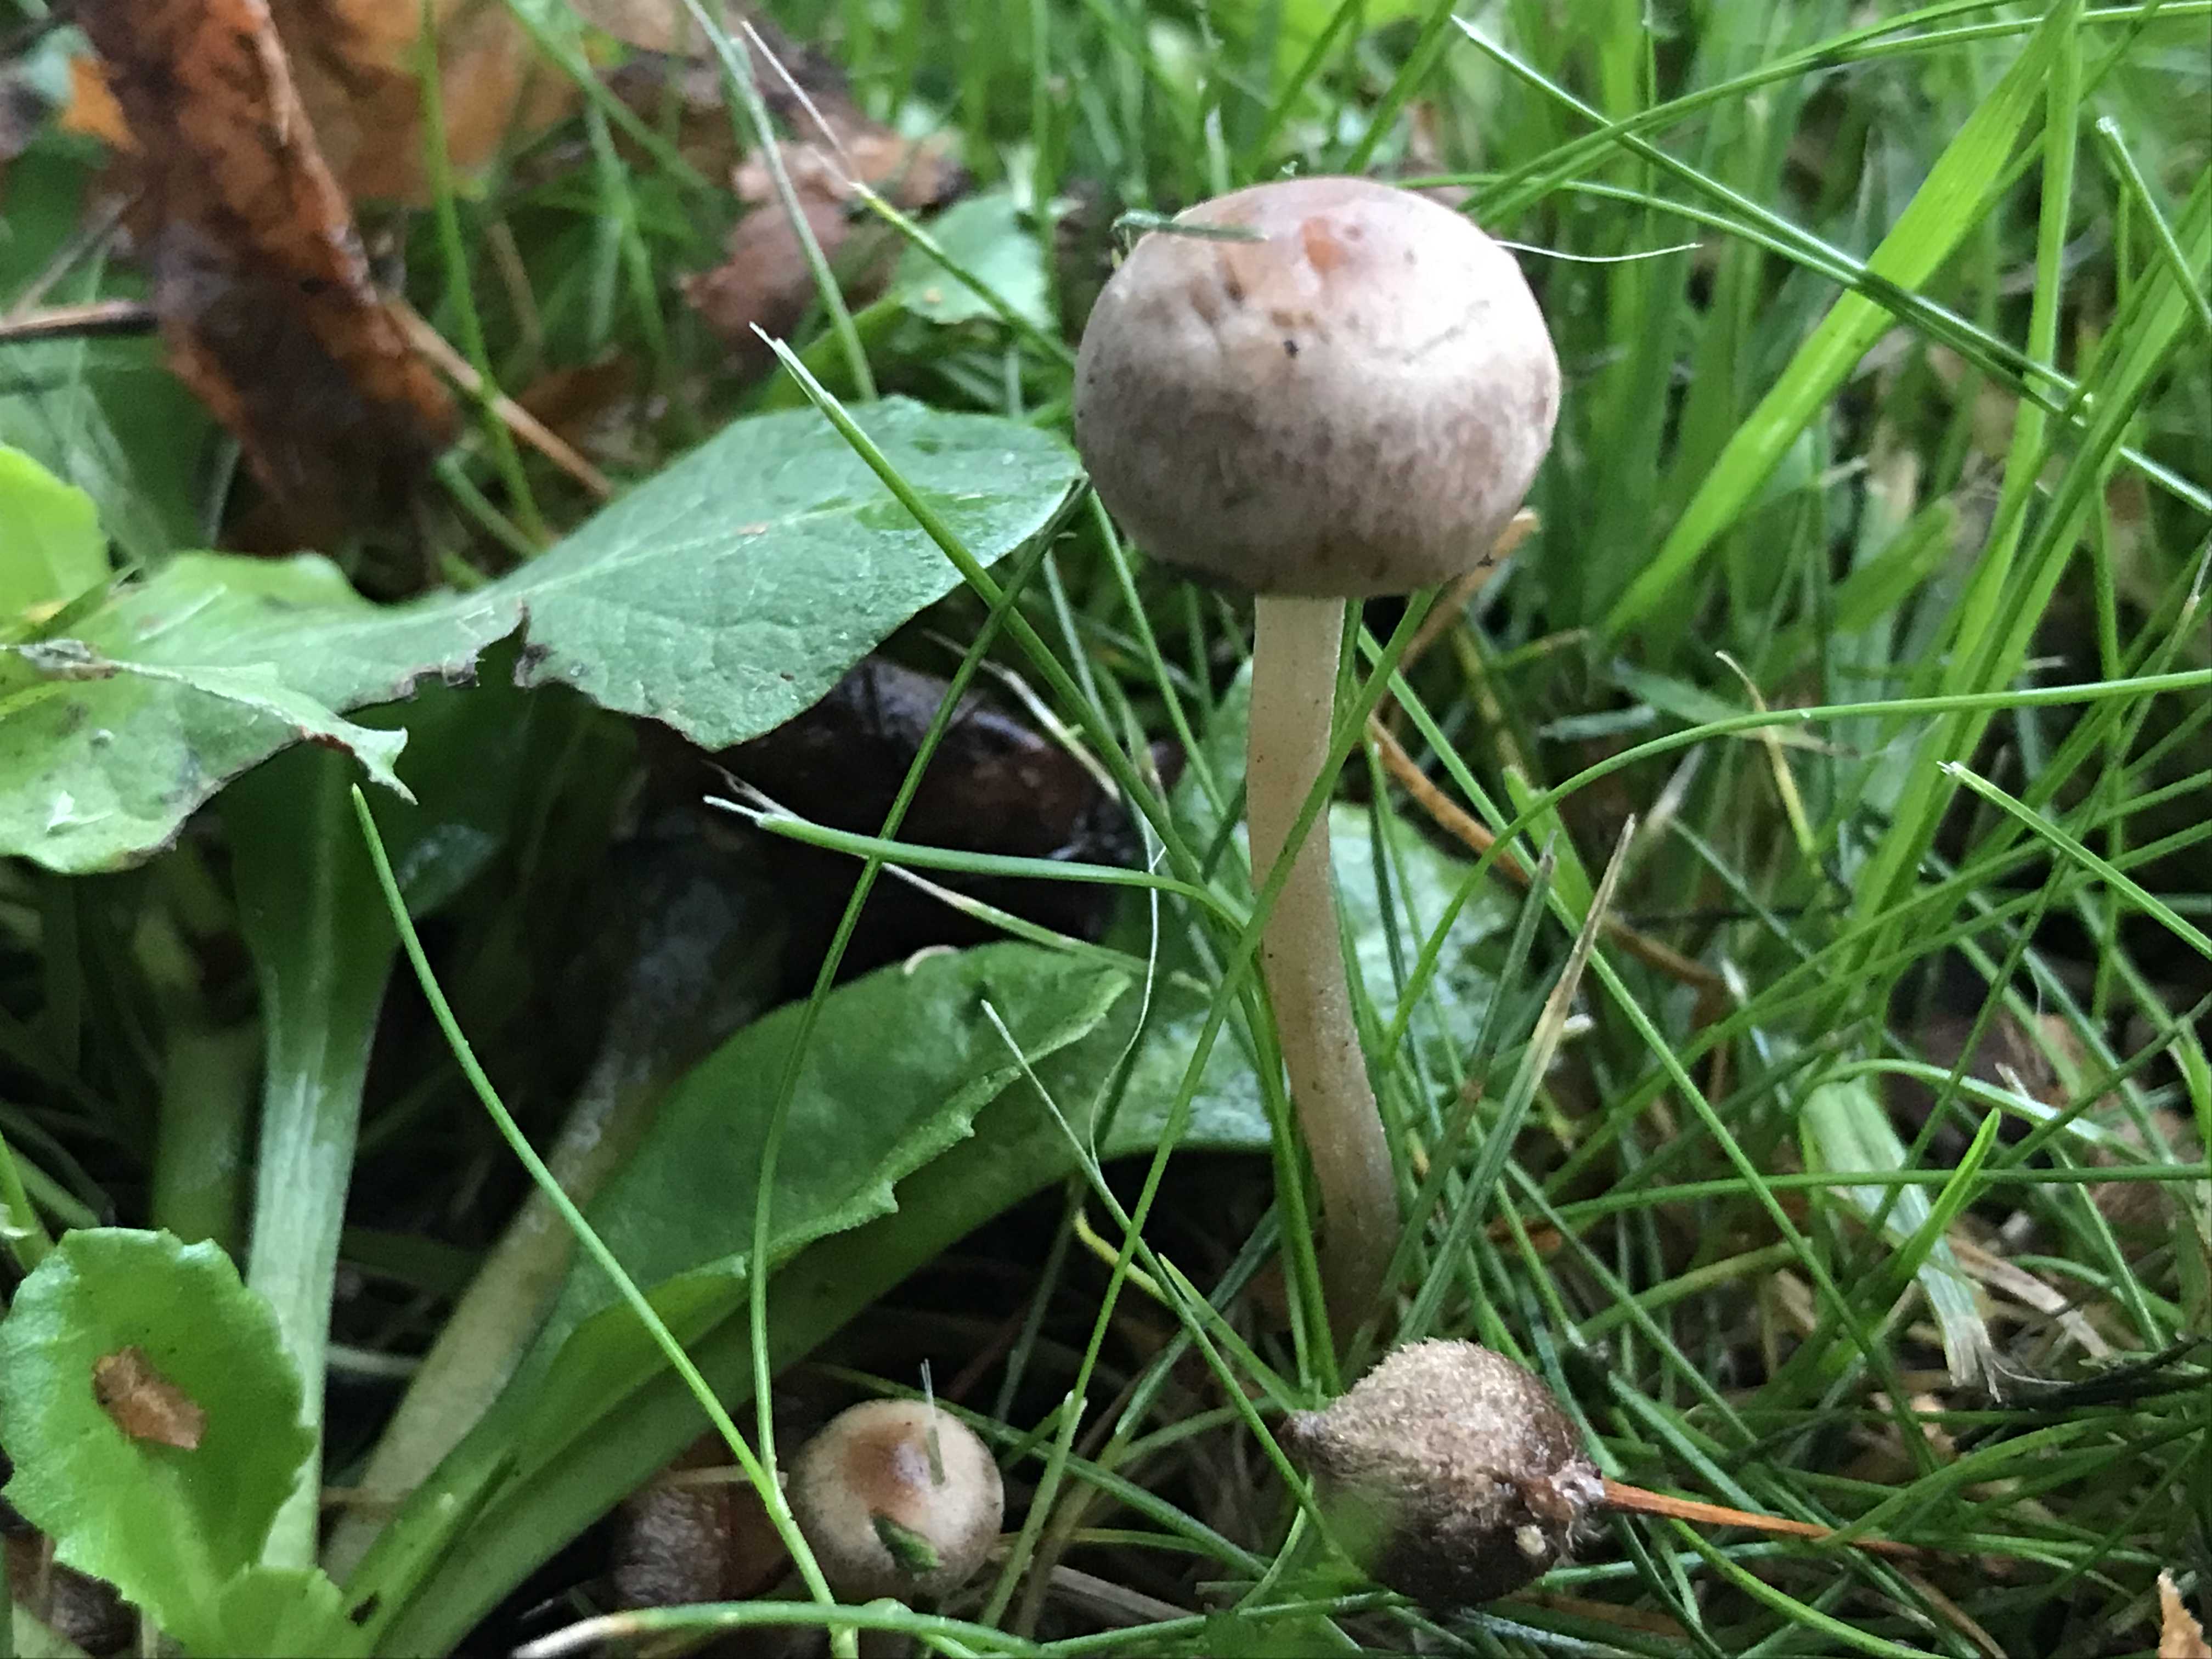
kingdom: Fungi
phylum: Basidiomycota
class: Agaricomycetes
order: Agaricales
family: Bolbitiaceae
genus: Panaeolina
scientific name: Panaeolina foenisecii
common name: høslætsvamp
